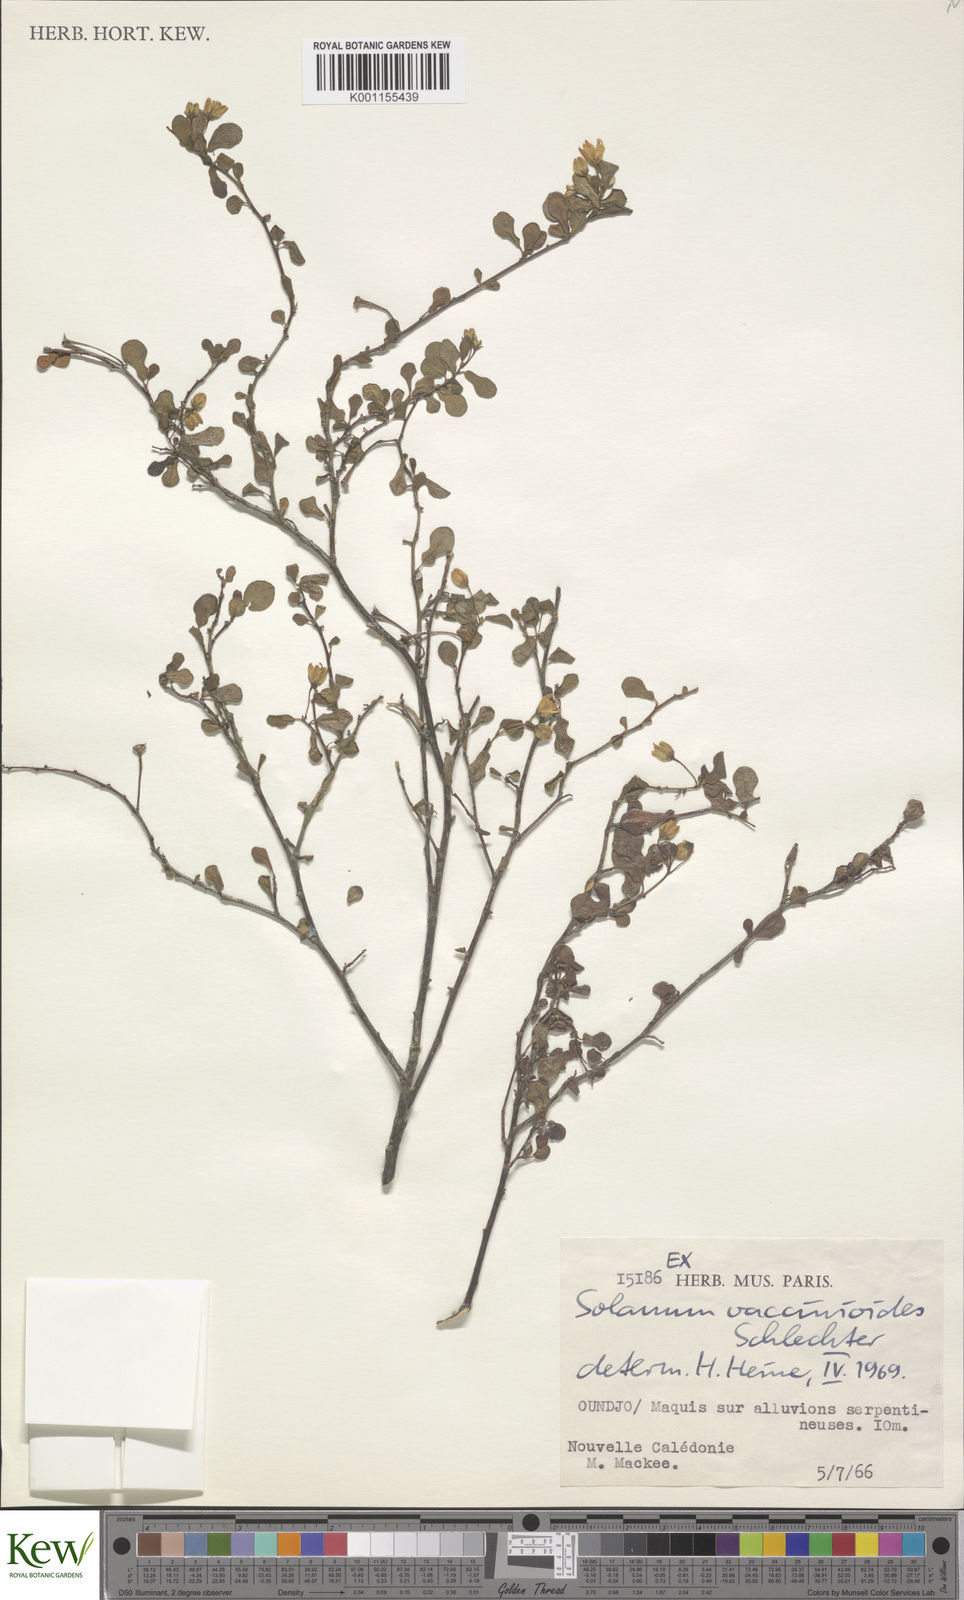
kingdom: Plantae
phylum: Tracheophyta
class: Magnoliopsida
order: Solanales
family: Solanaceae
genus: Solanum
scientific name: Solanum vaccinioides
